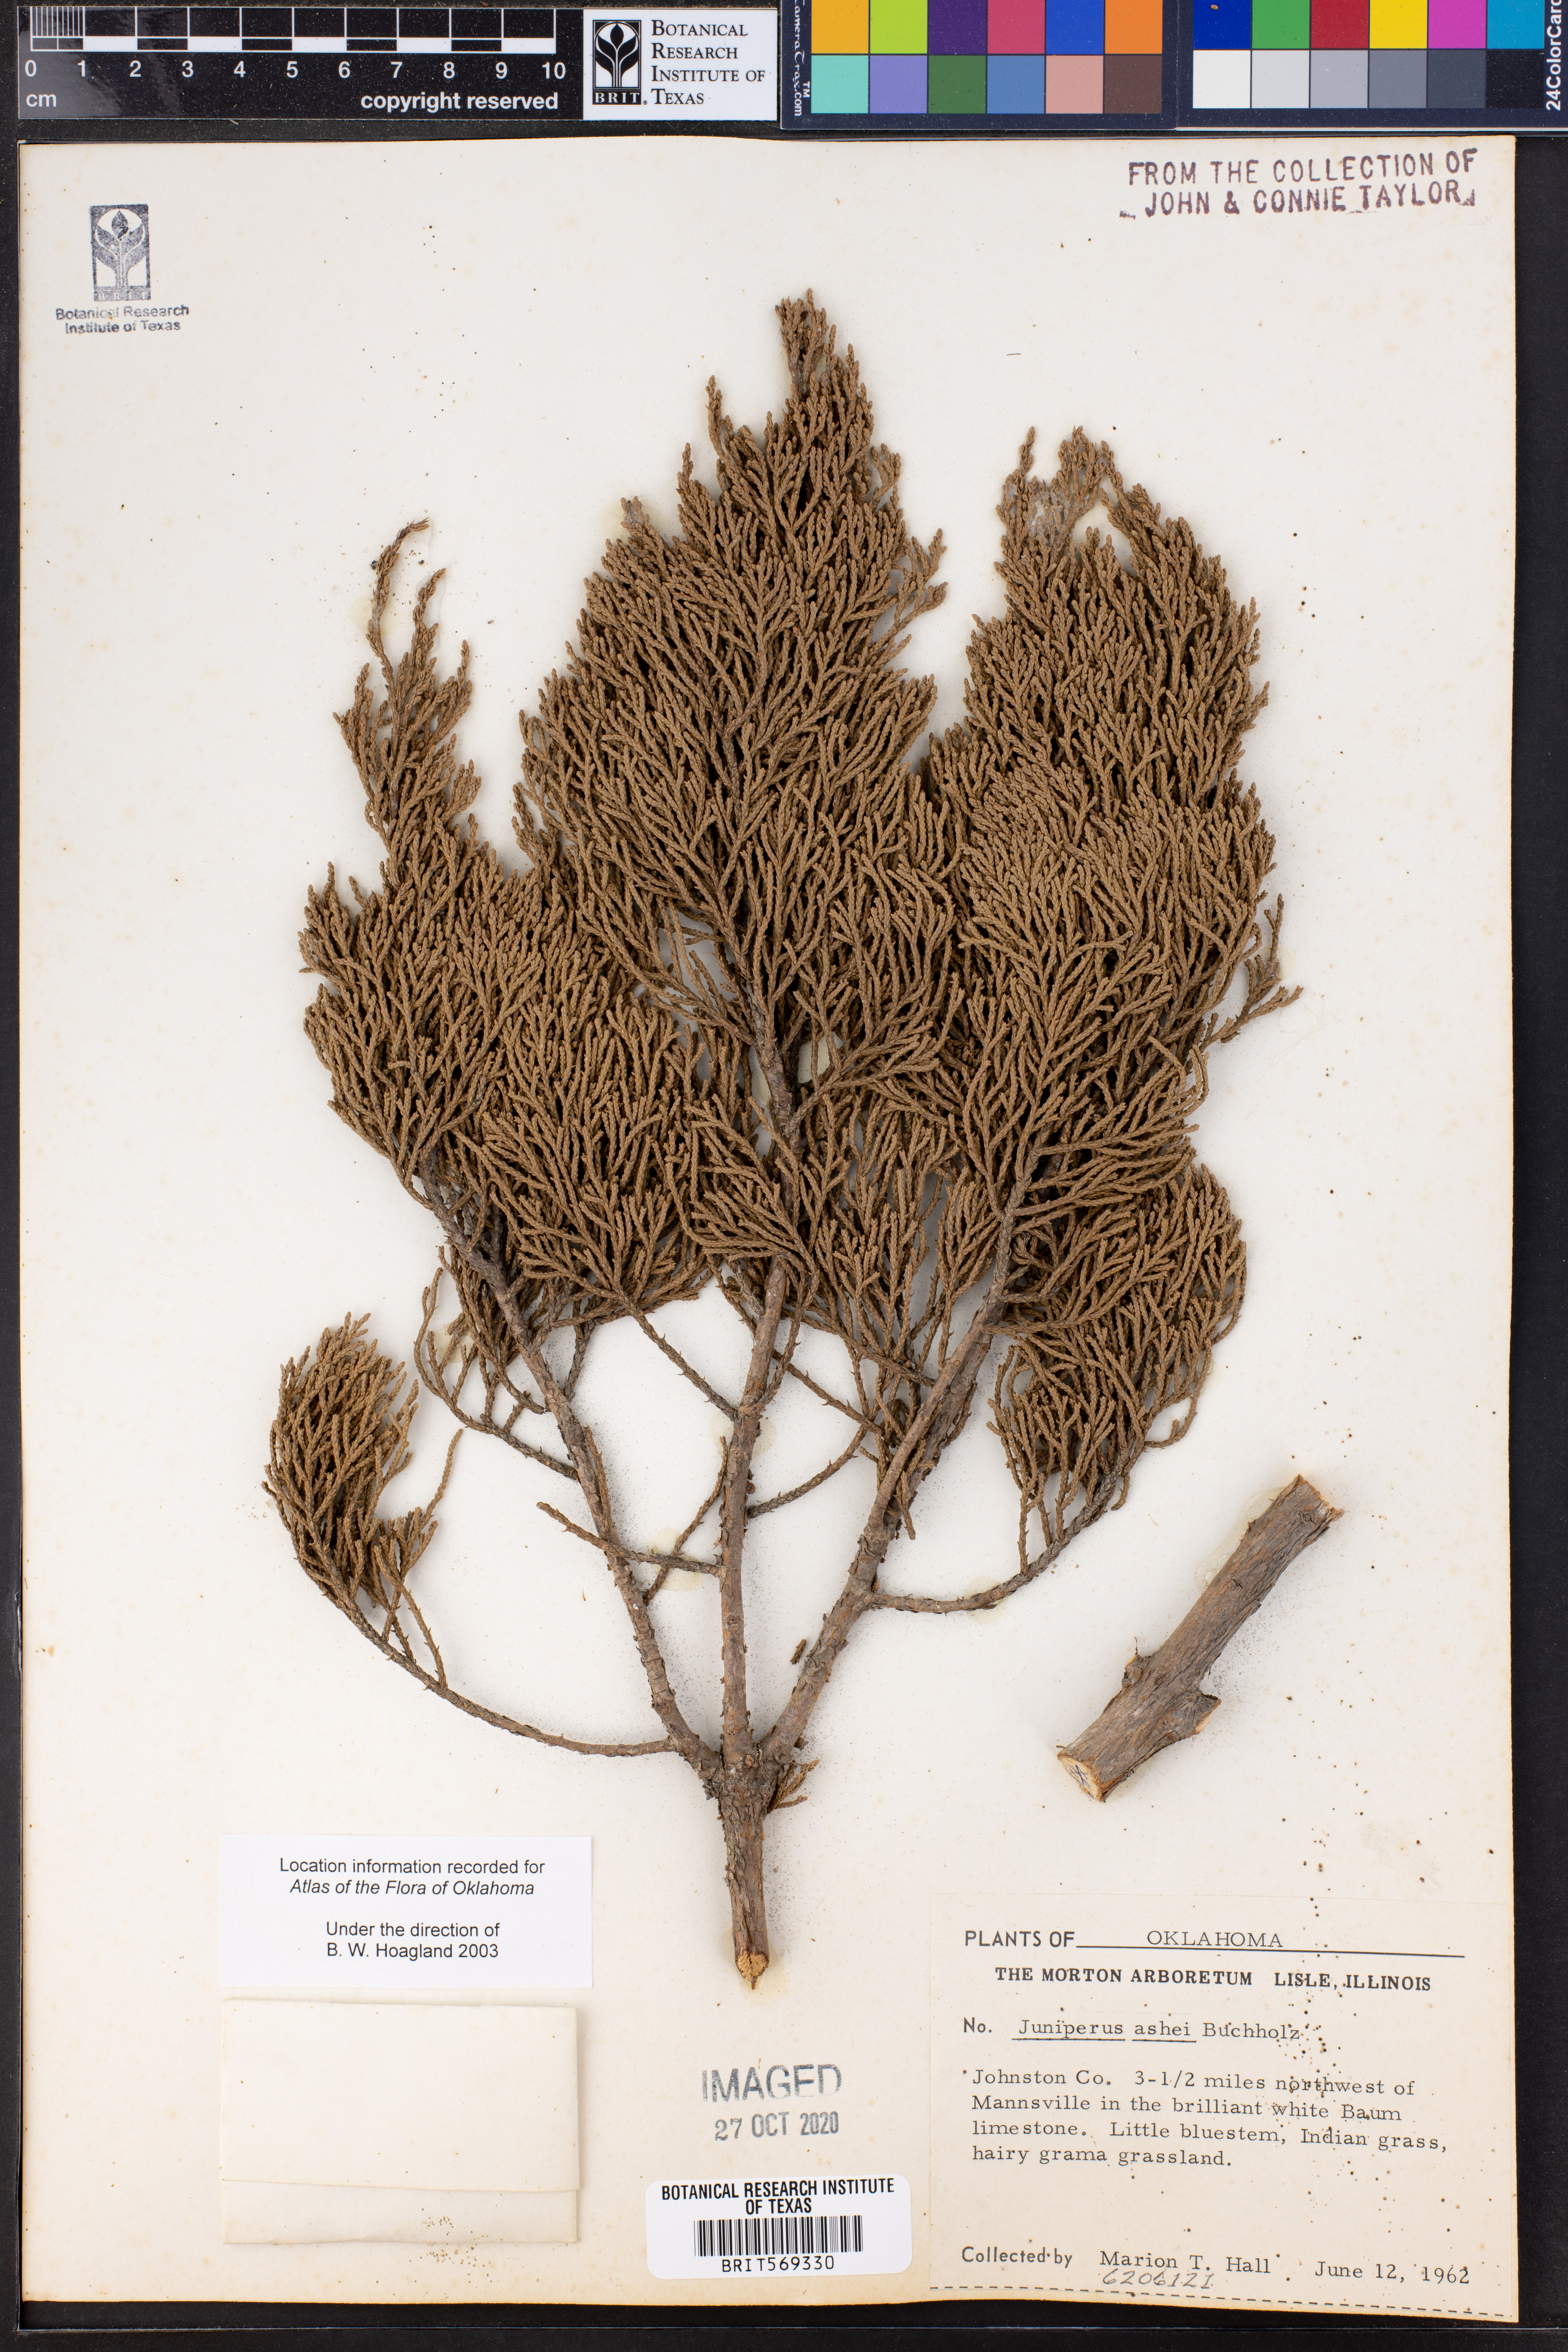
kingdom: Plantae
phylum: Tracheophyta
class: Pinopsida
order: Pinales
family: Cupressaceae
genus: Juniperus
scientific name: Juniperus ashei
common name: Mexican juniper
